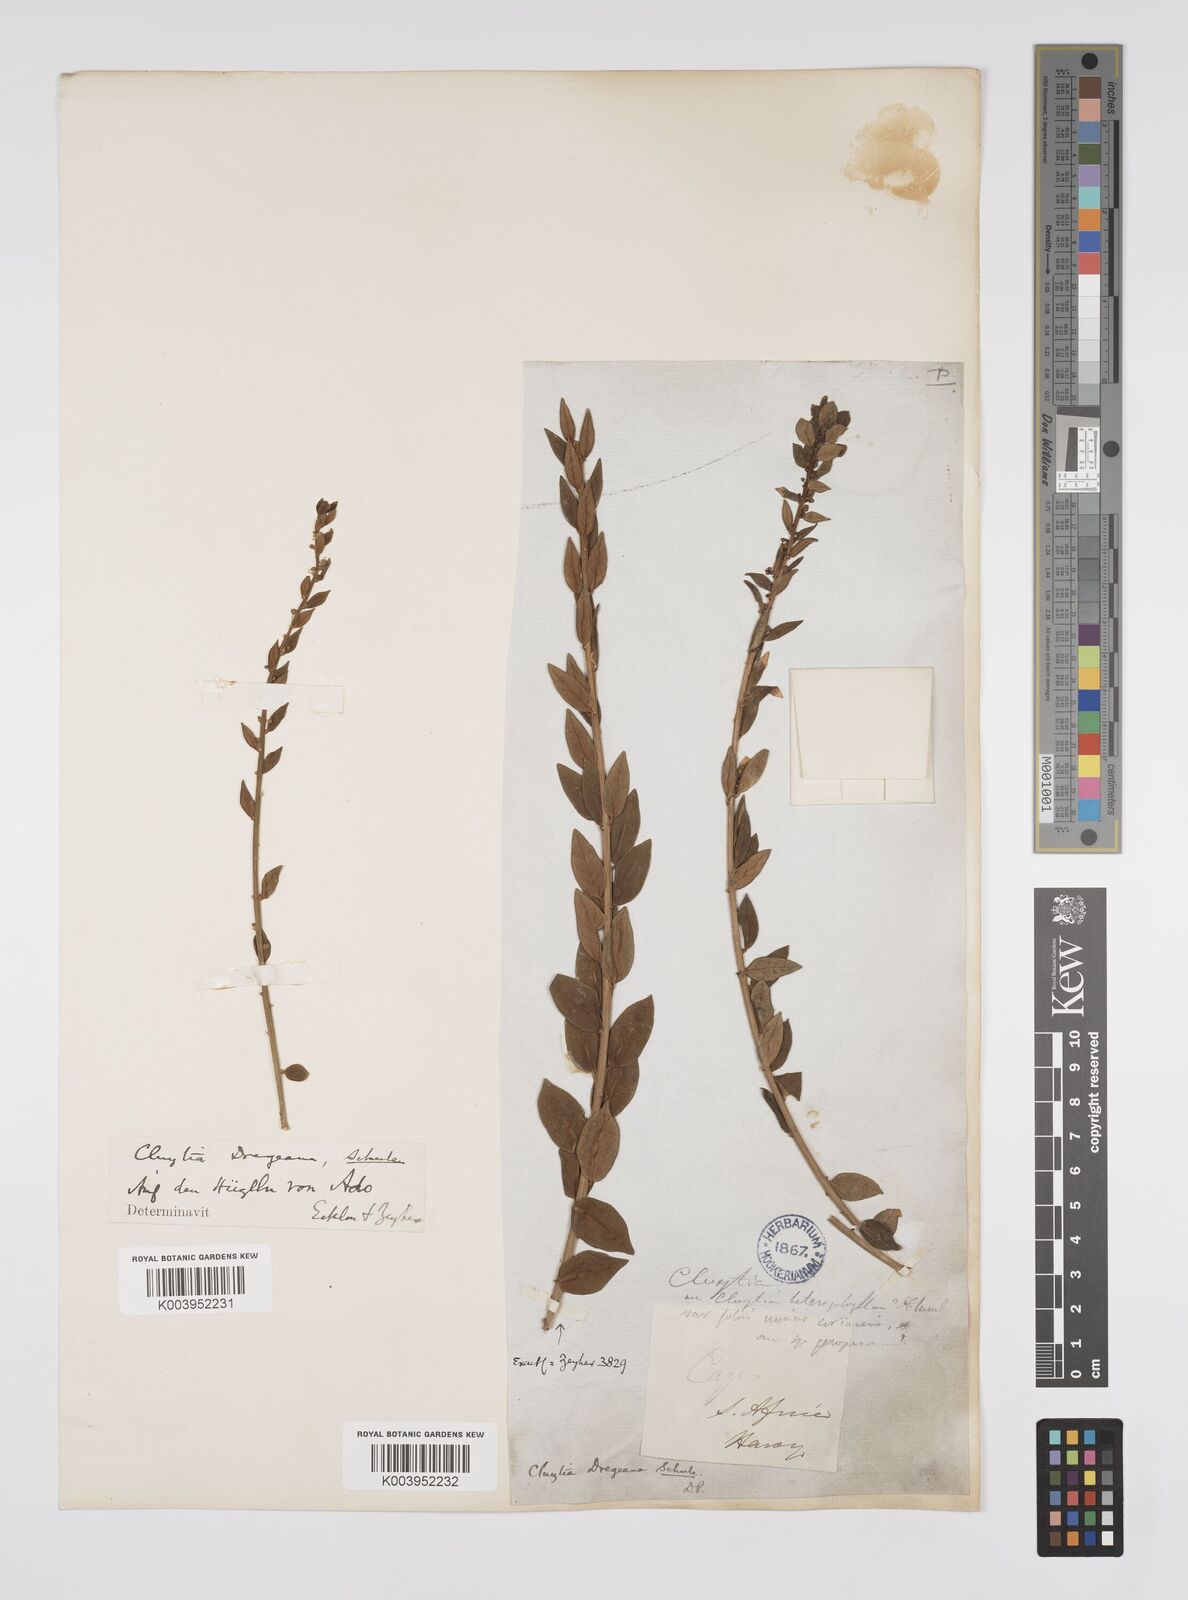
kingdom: Plantae
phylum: Tracheophyta
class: Magnoliopsida
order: Malpighiales
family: Peraceae
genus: Clutia
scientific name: Clutia dregeana
